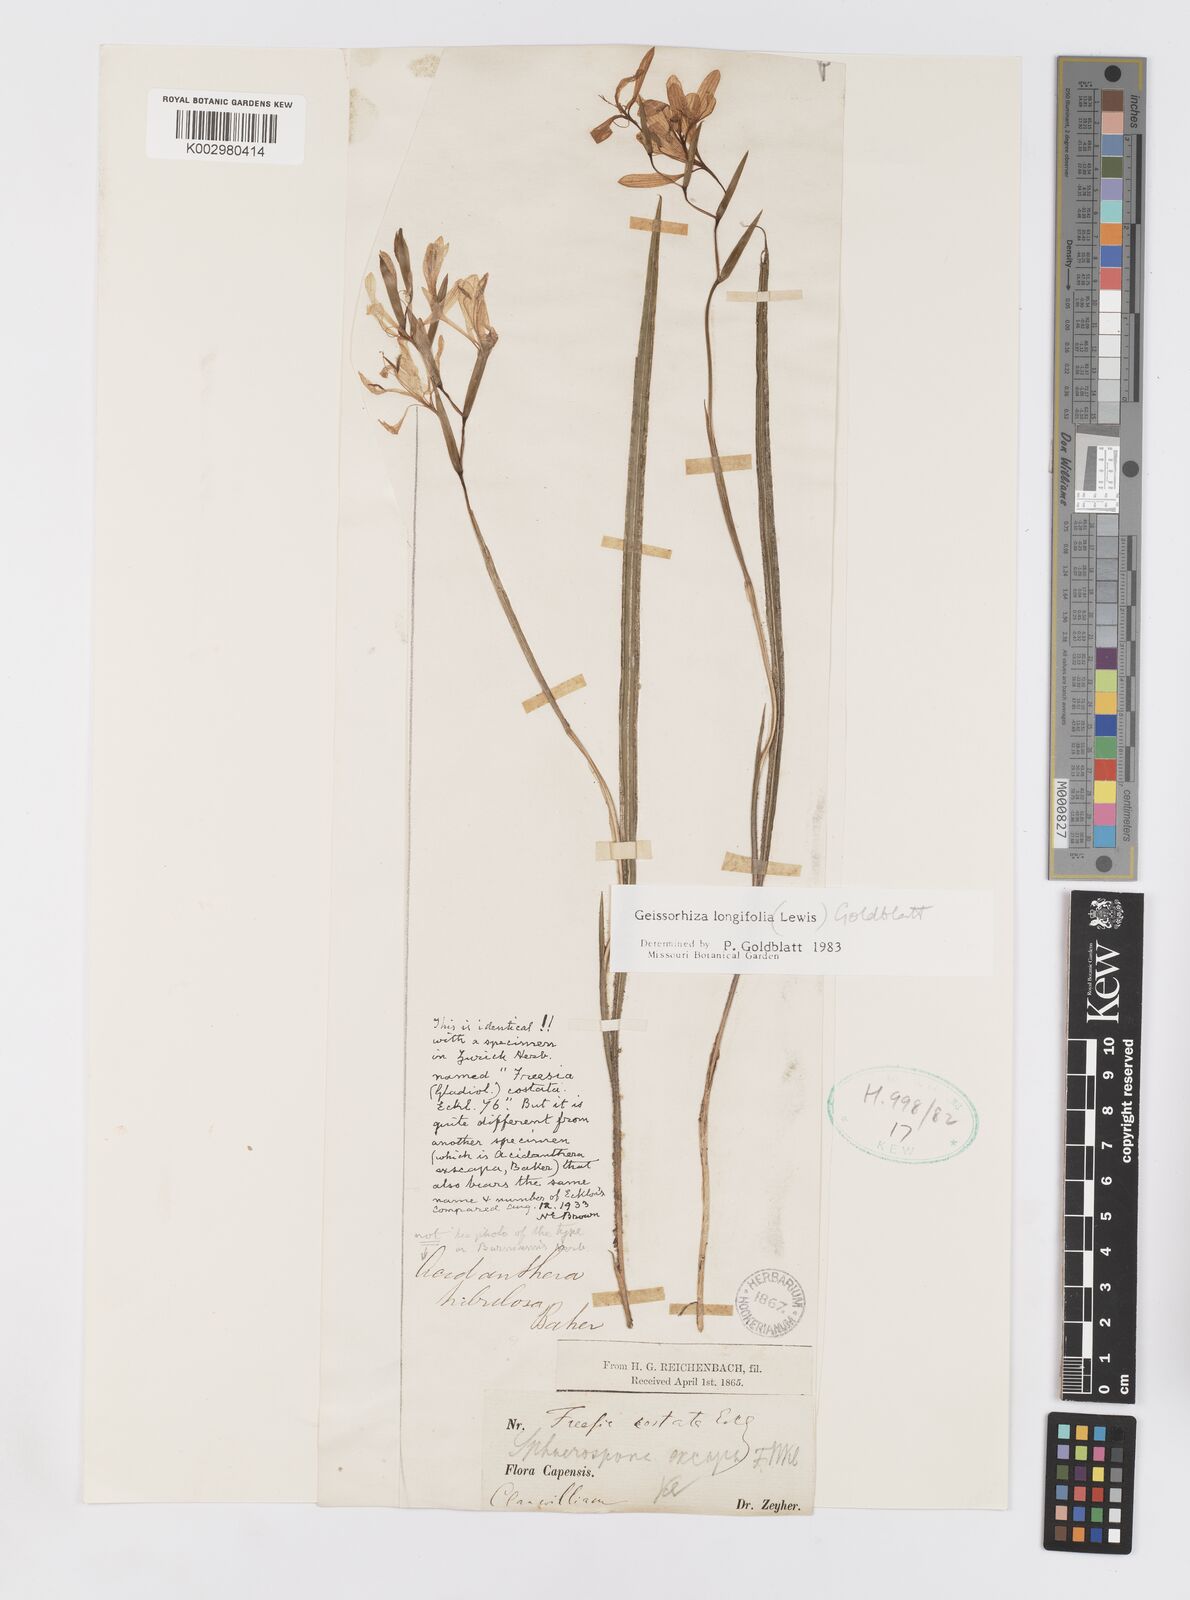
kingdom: Plantae
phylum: Tracheophyta
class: Liliopsida
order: Asparagales
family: Iridaceae
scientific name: Iridaceae
